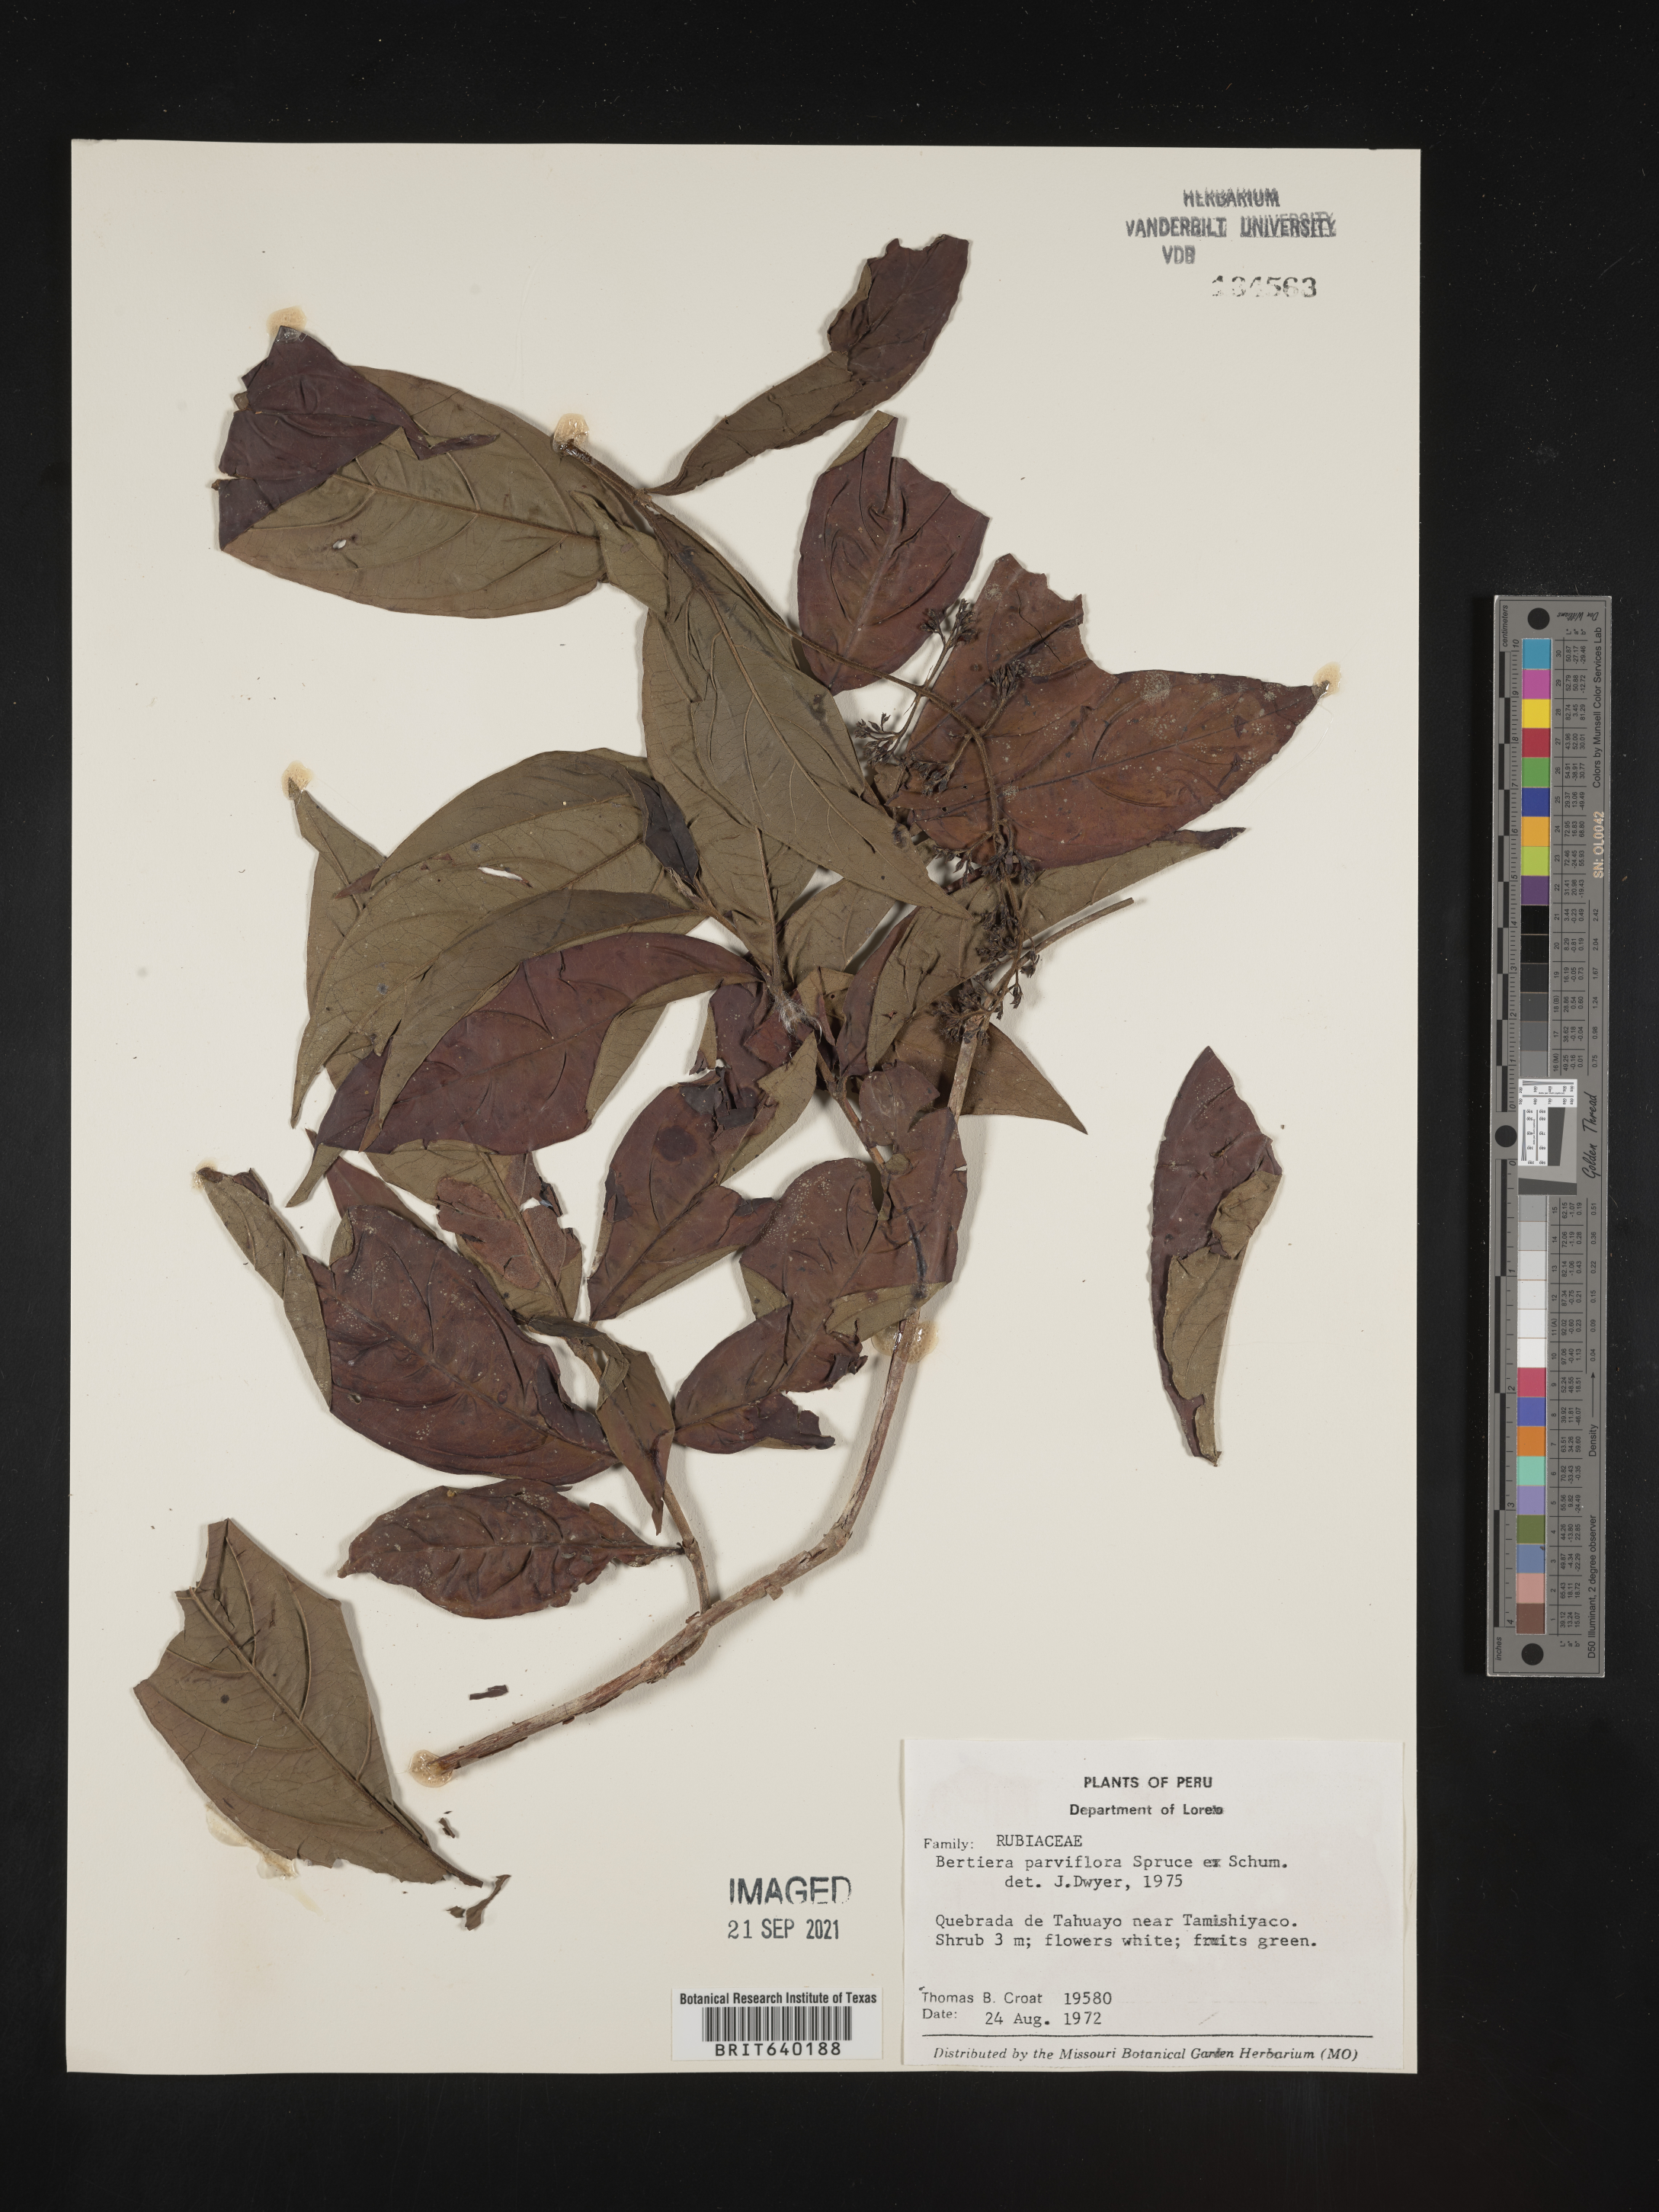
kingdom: Plantae
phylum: Tracheophyta
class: Magnoliopsida
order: Gentianales
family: Rubiaceae
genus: Bertiera
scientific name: Bertiera
